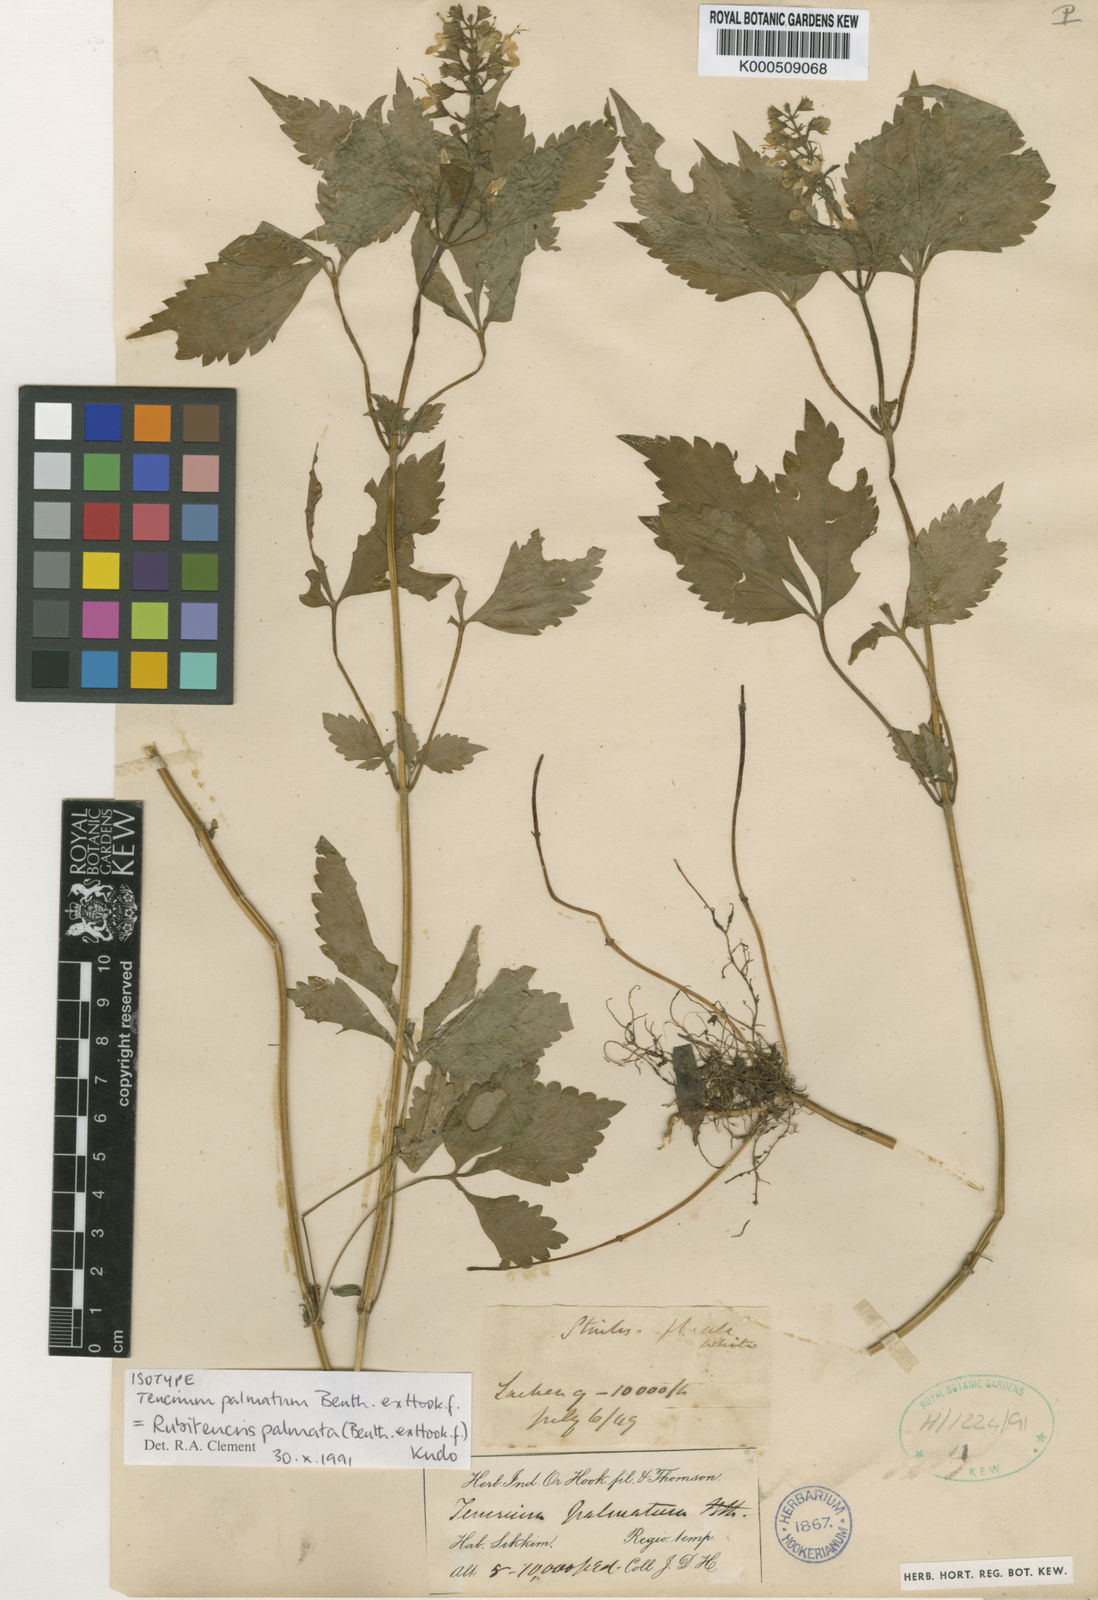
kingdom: Plantae
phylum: Tracheophyta
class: Magnoliopsida
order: Lamiales
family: Lamiaceae
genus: Rubiteucris
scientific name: Rubiteucris
